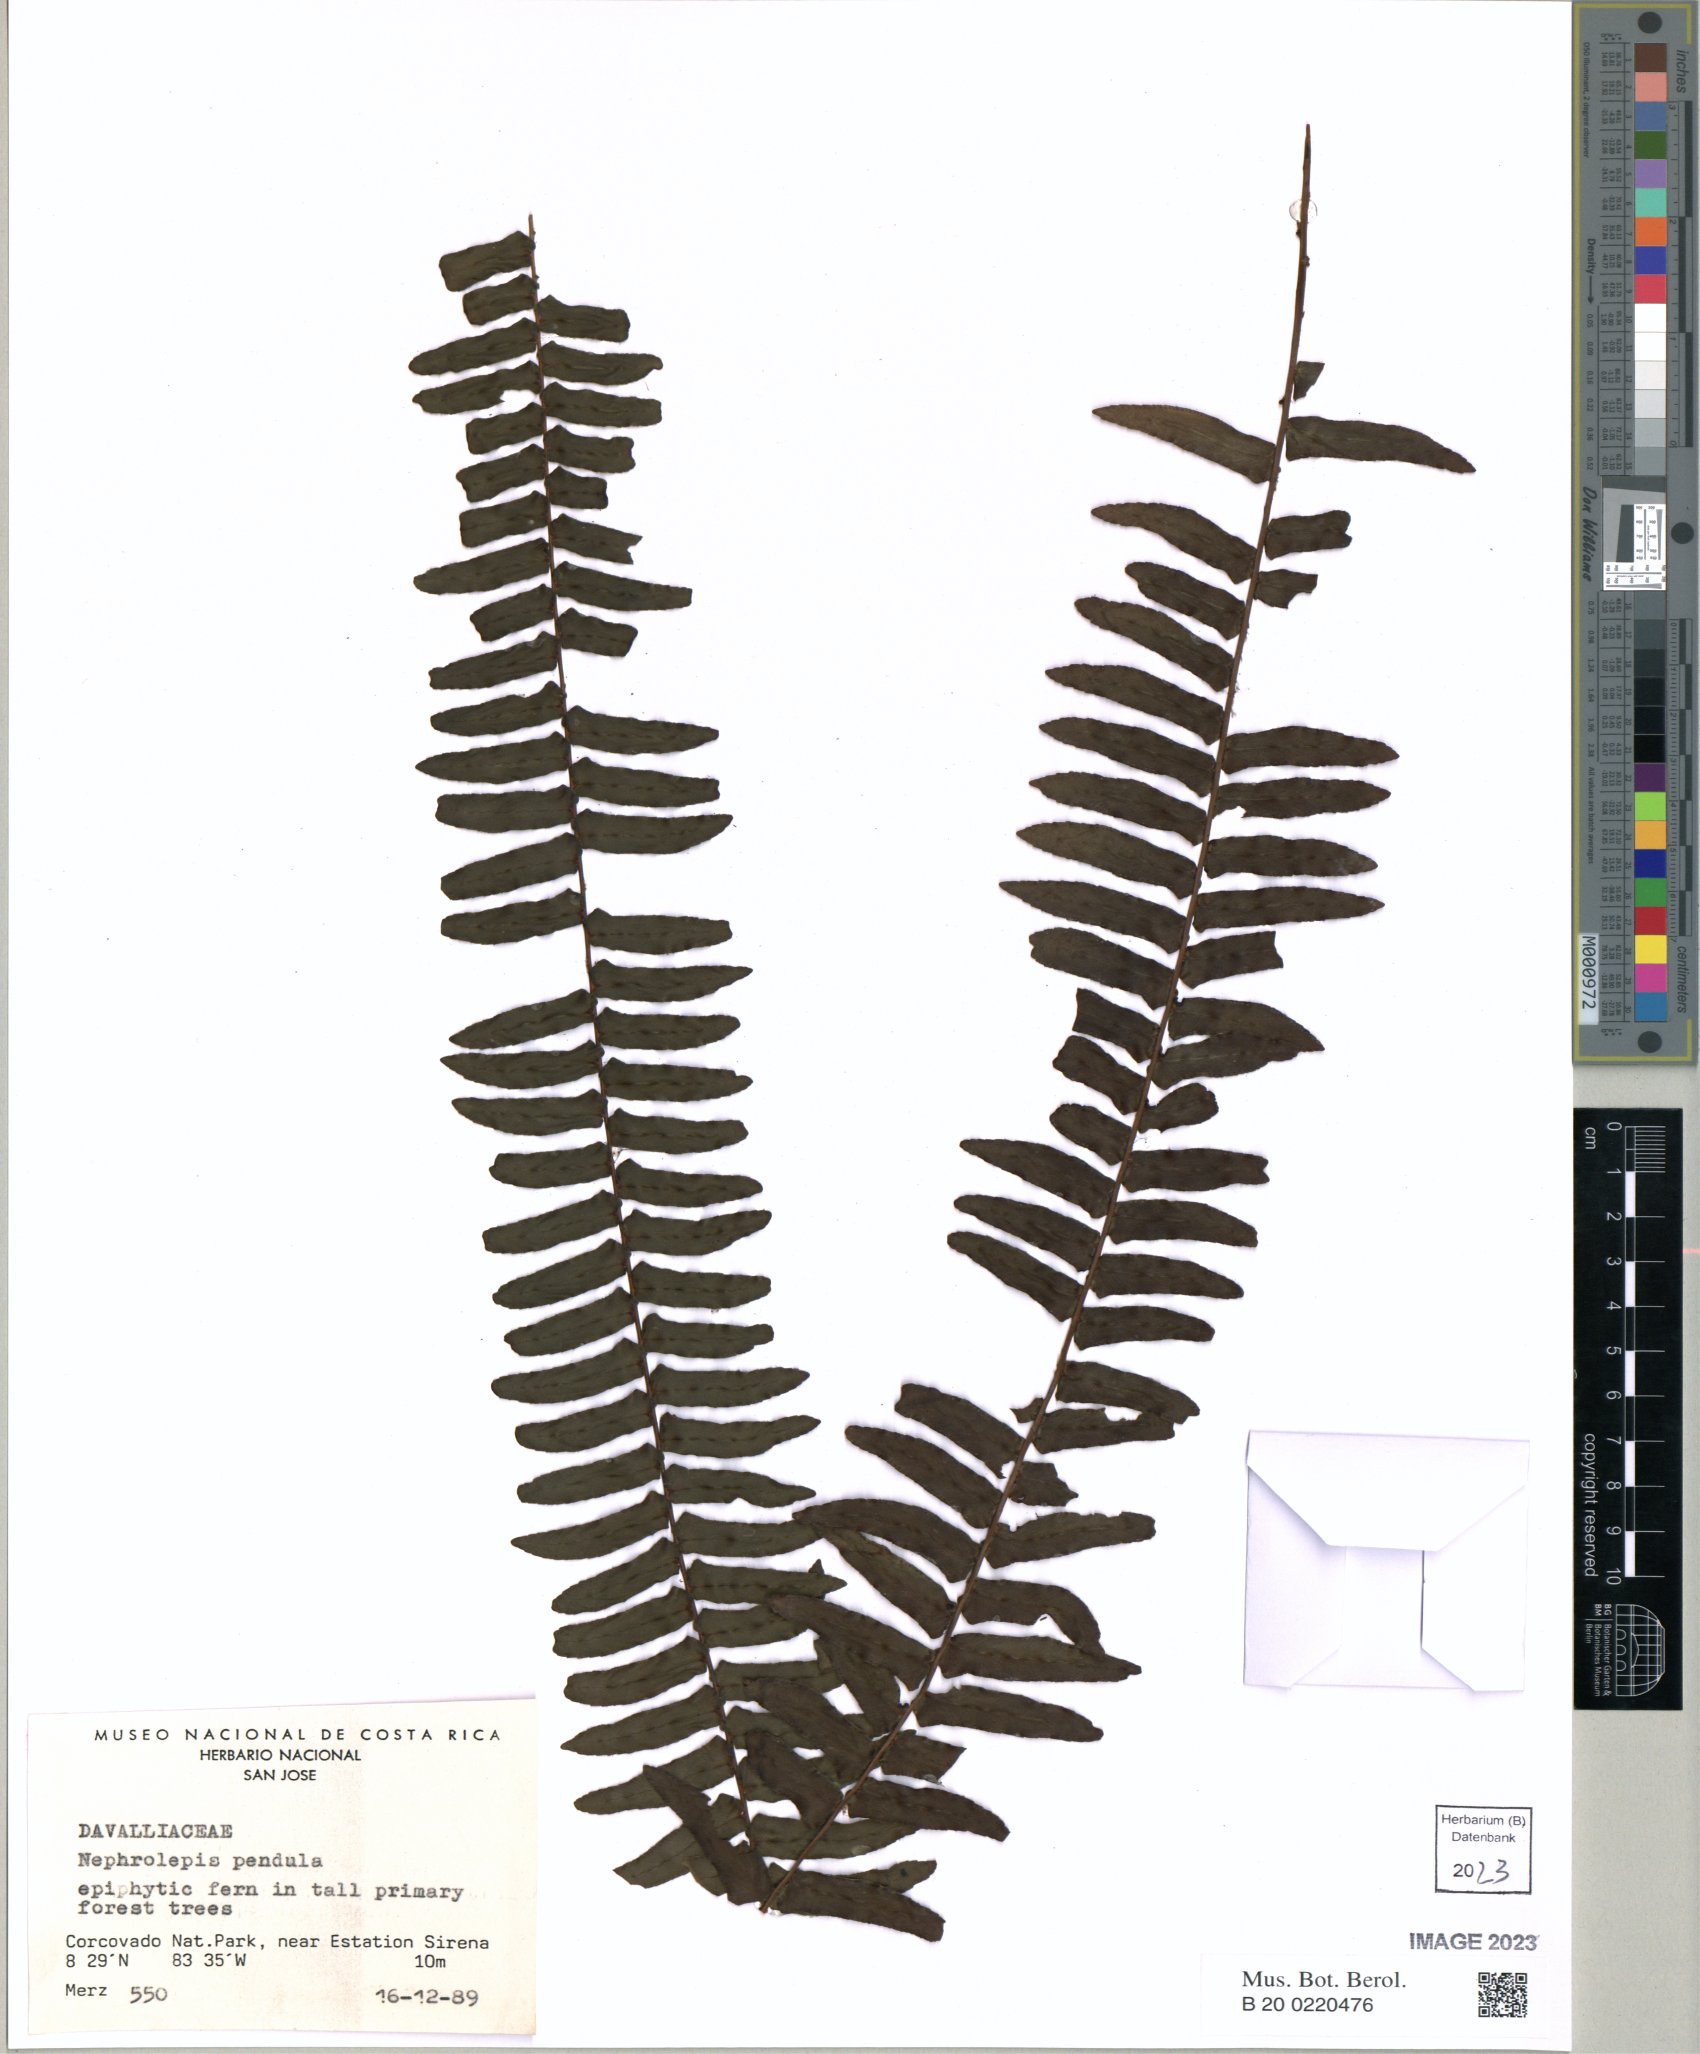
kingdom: Plantae
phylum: Tracheophyta
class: Polypodiopsida
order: Polypodiales
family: Nephrolepidaceae
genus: Nephrolepis
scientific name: Nephrolepis pendula
